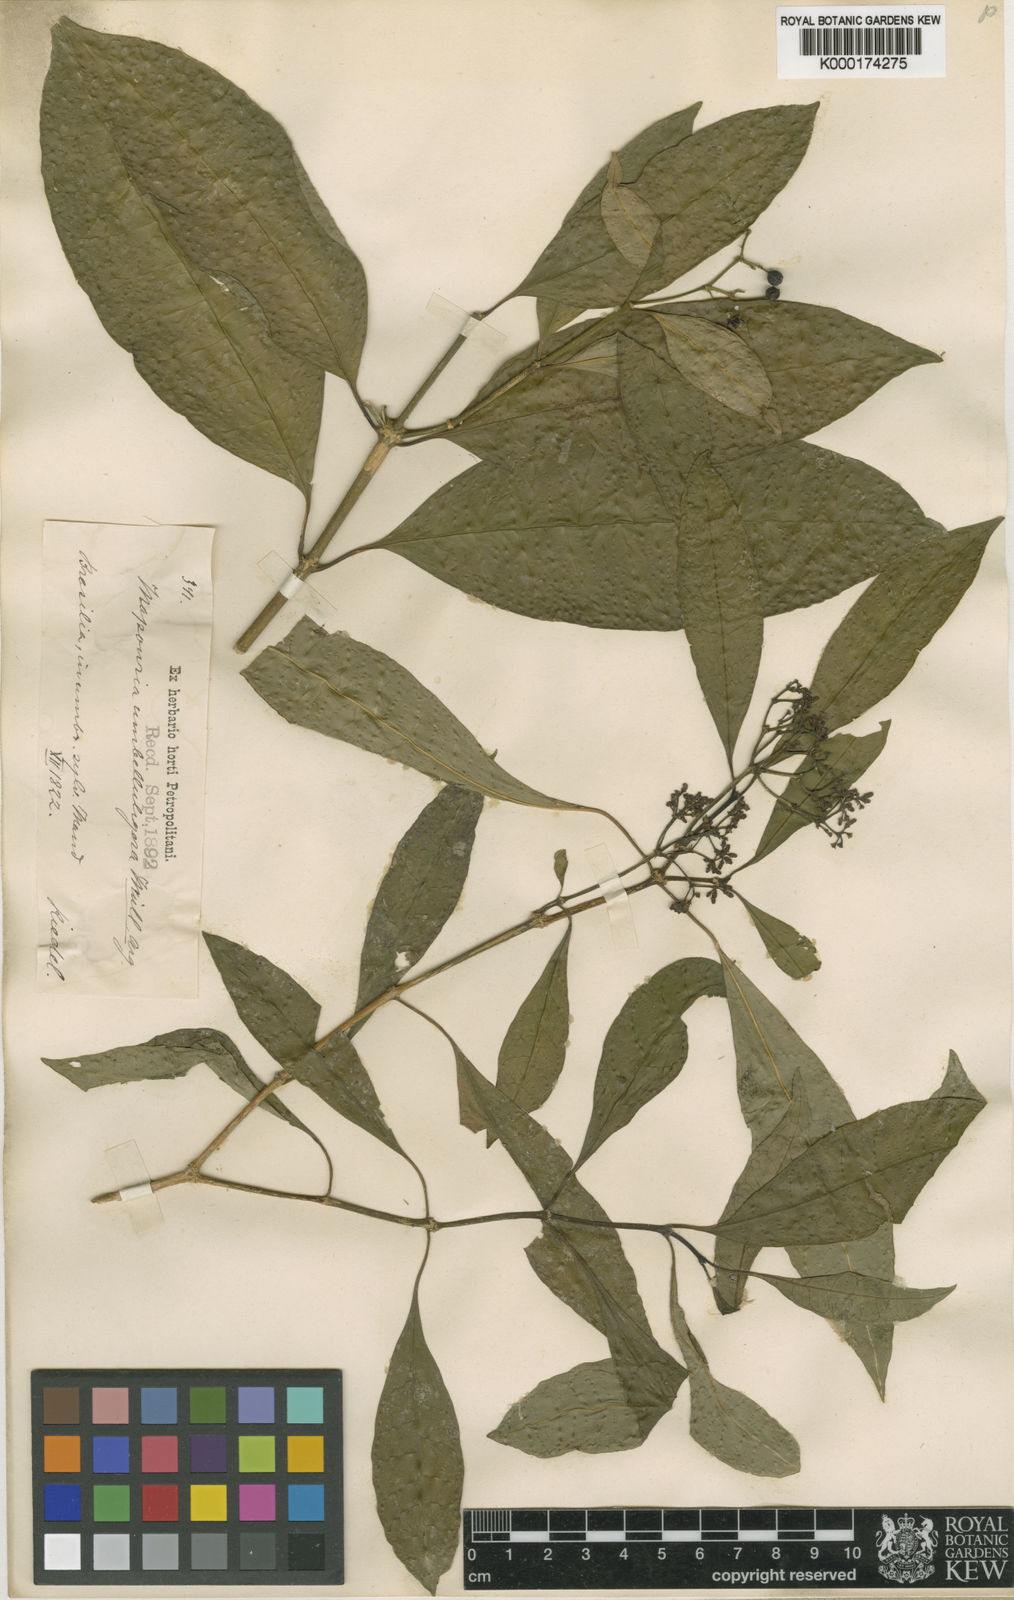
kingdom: Plantae
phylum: Tracheophyta
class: Magnoliopsida
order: Gentianales
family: Rubiaceae
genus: Psychotria
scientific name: Psychotria
